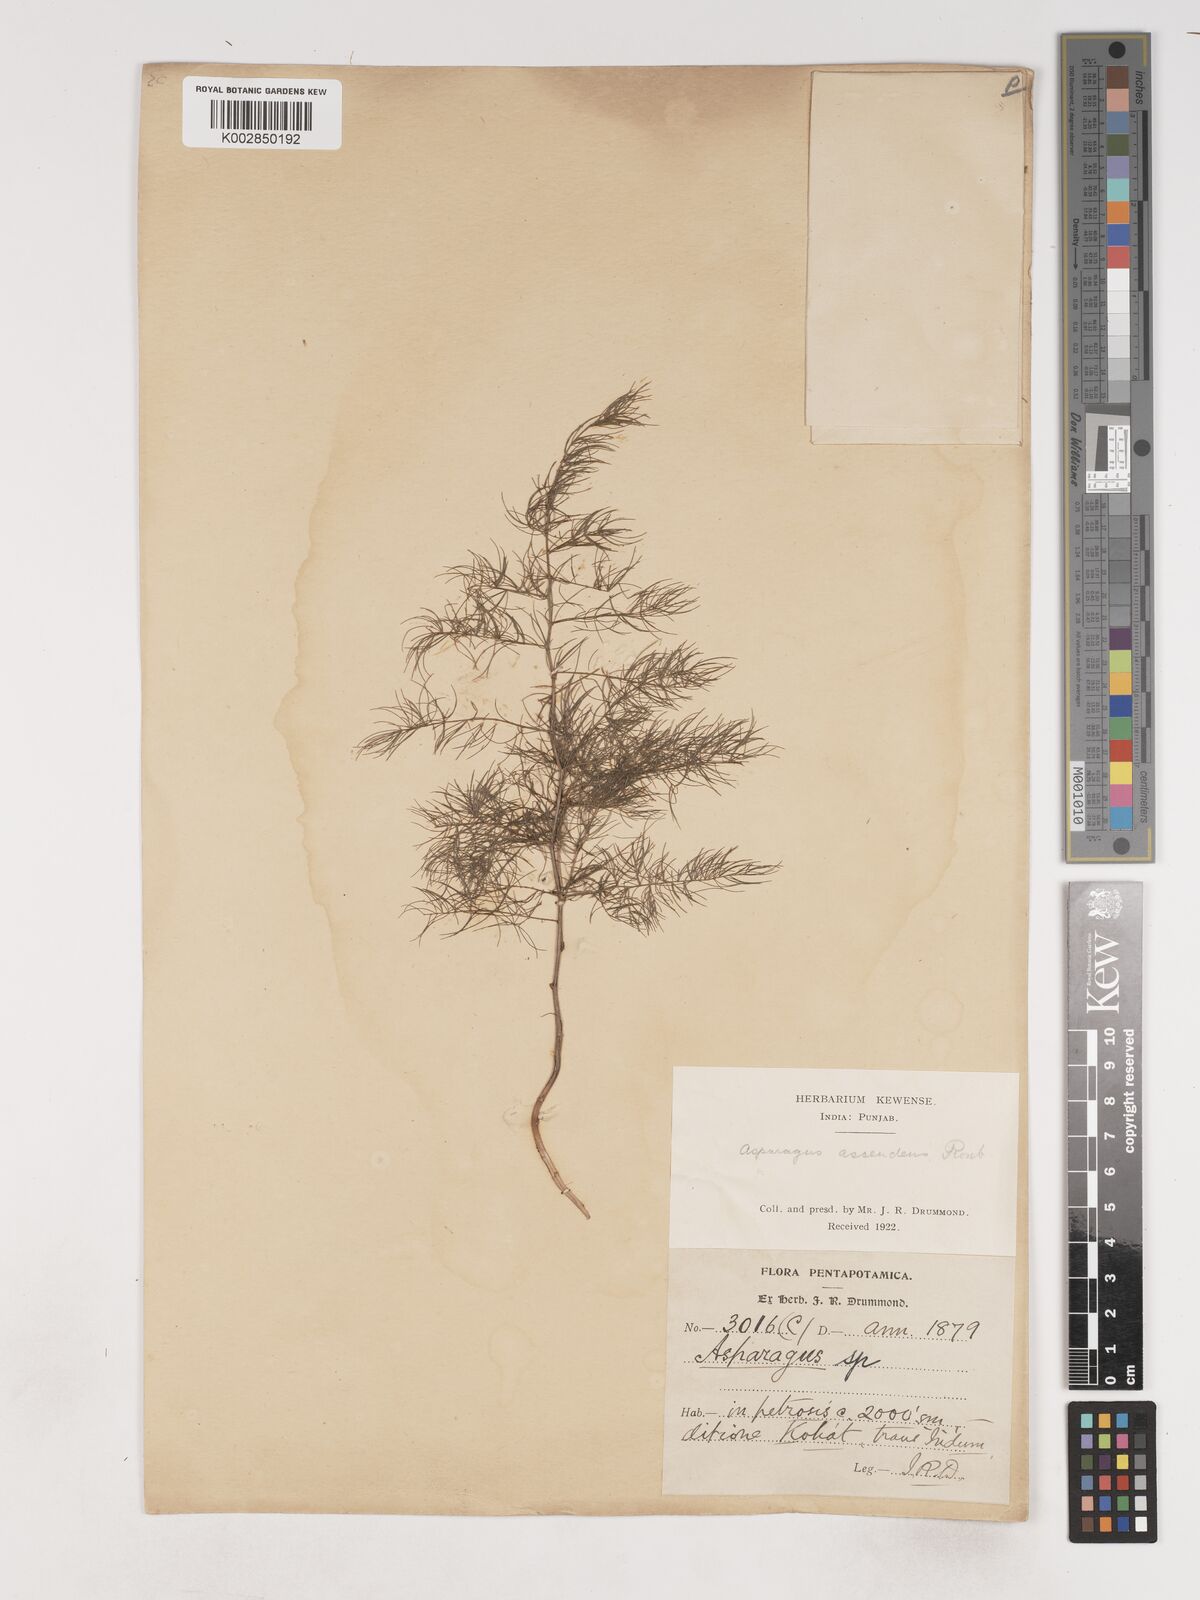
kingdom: Plantae
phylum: Tracheophyta
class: Liliopsida
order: Asparagales
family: Asparagaceae
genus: Asparagus
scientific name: Asparagus adscendens
